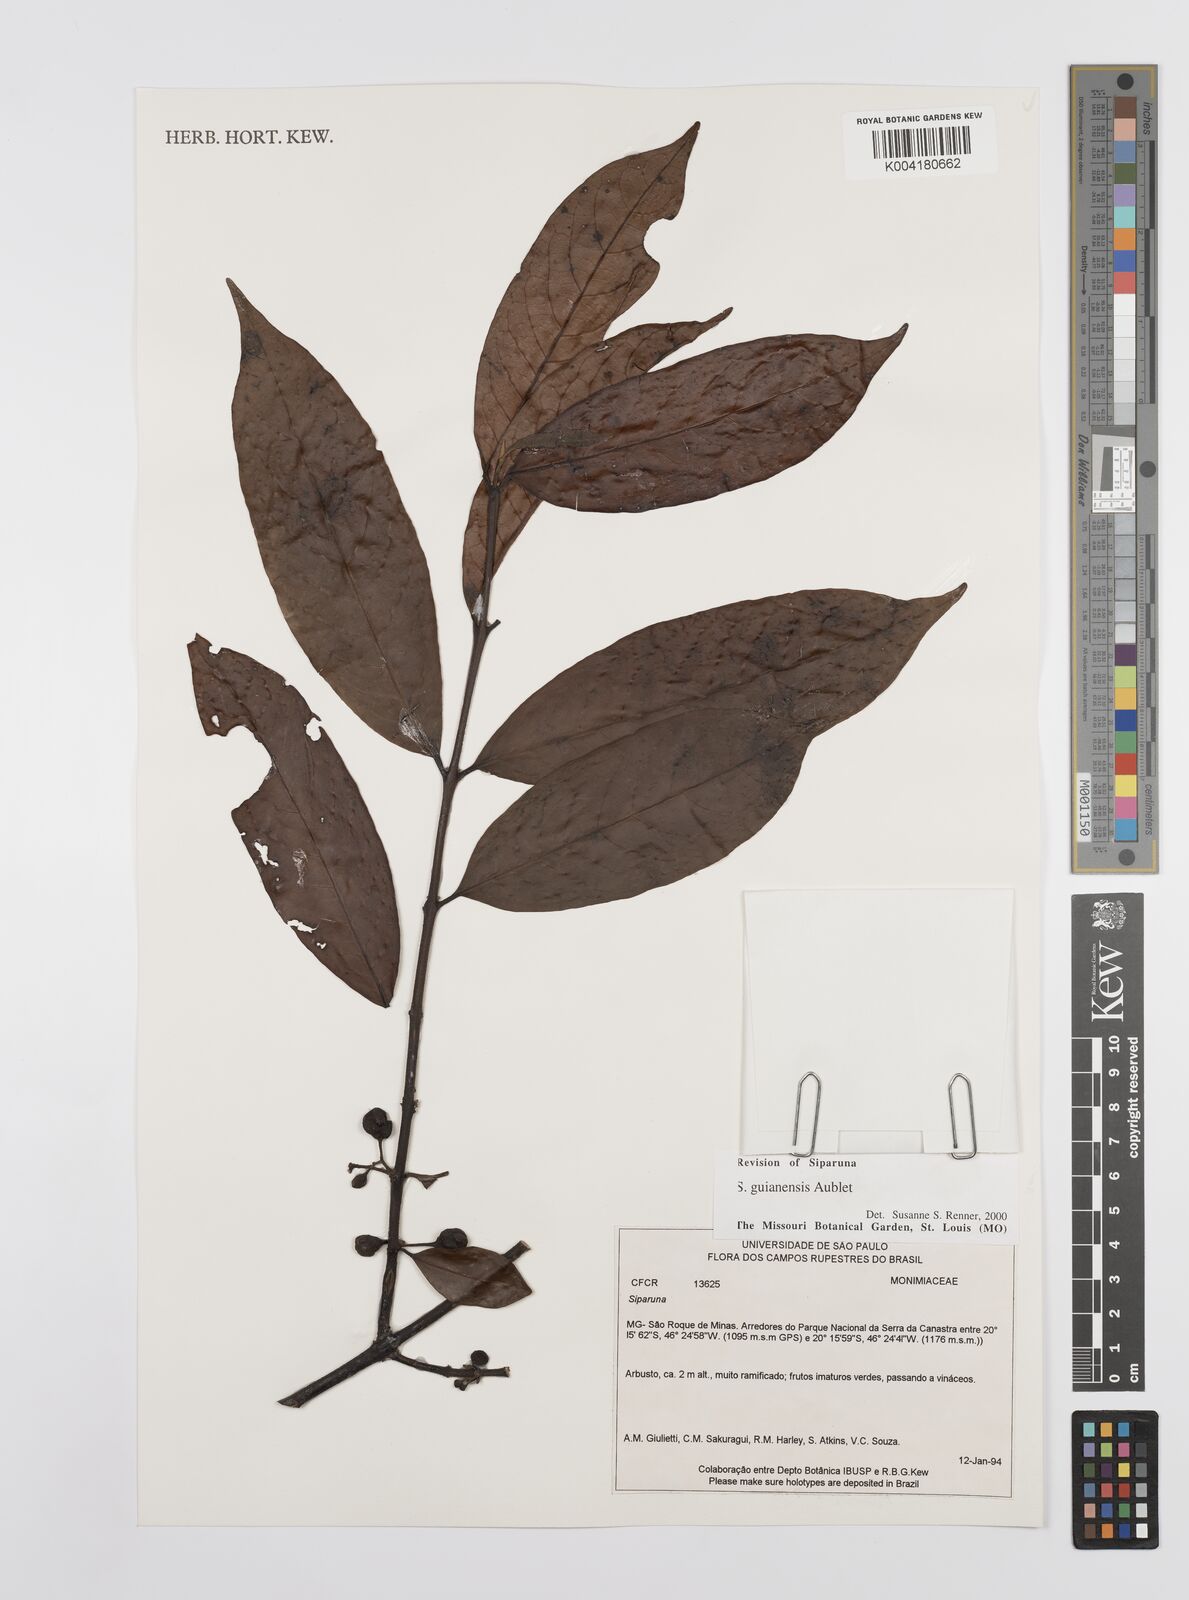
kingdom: Plantae
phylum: Tracheophyta
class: Magnoliopsida
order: Laurales
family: Siparunaceae
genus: Siparuna
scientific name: Siparuna guianensis
